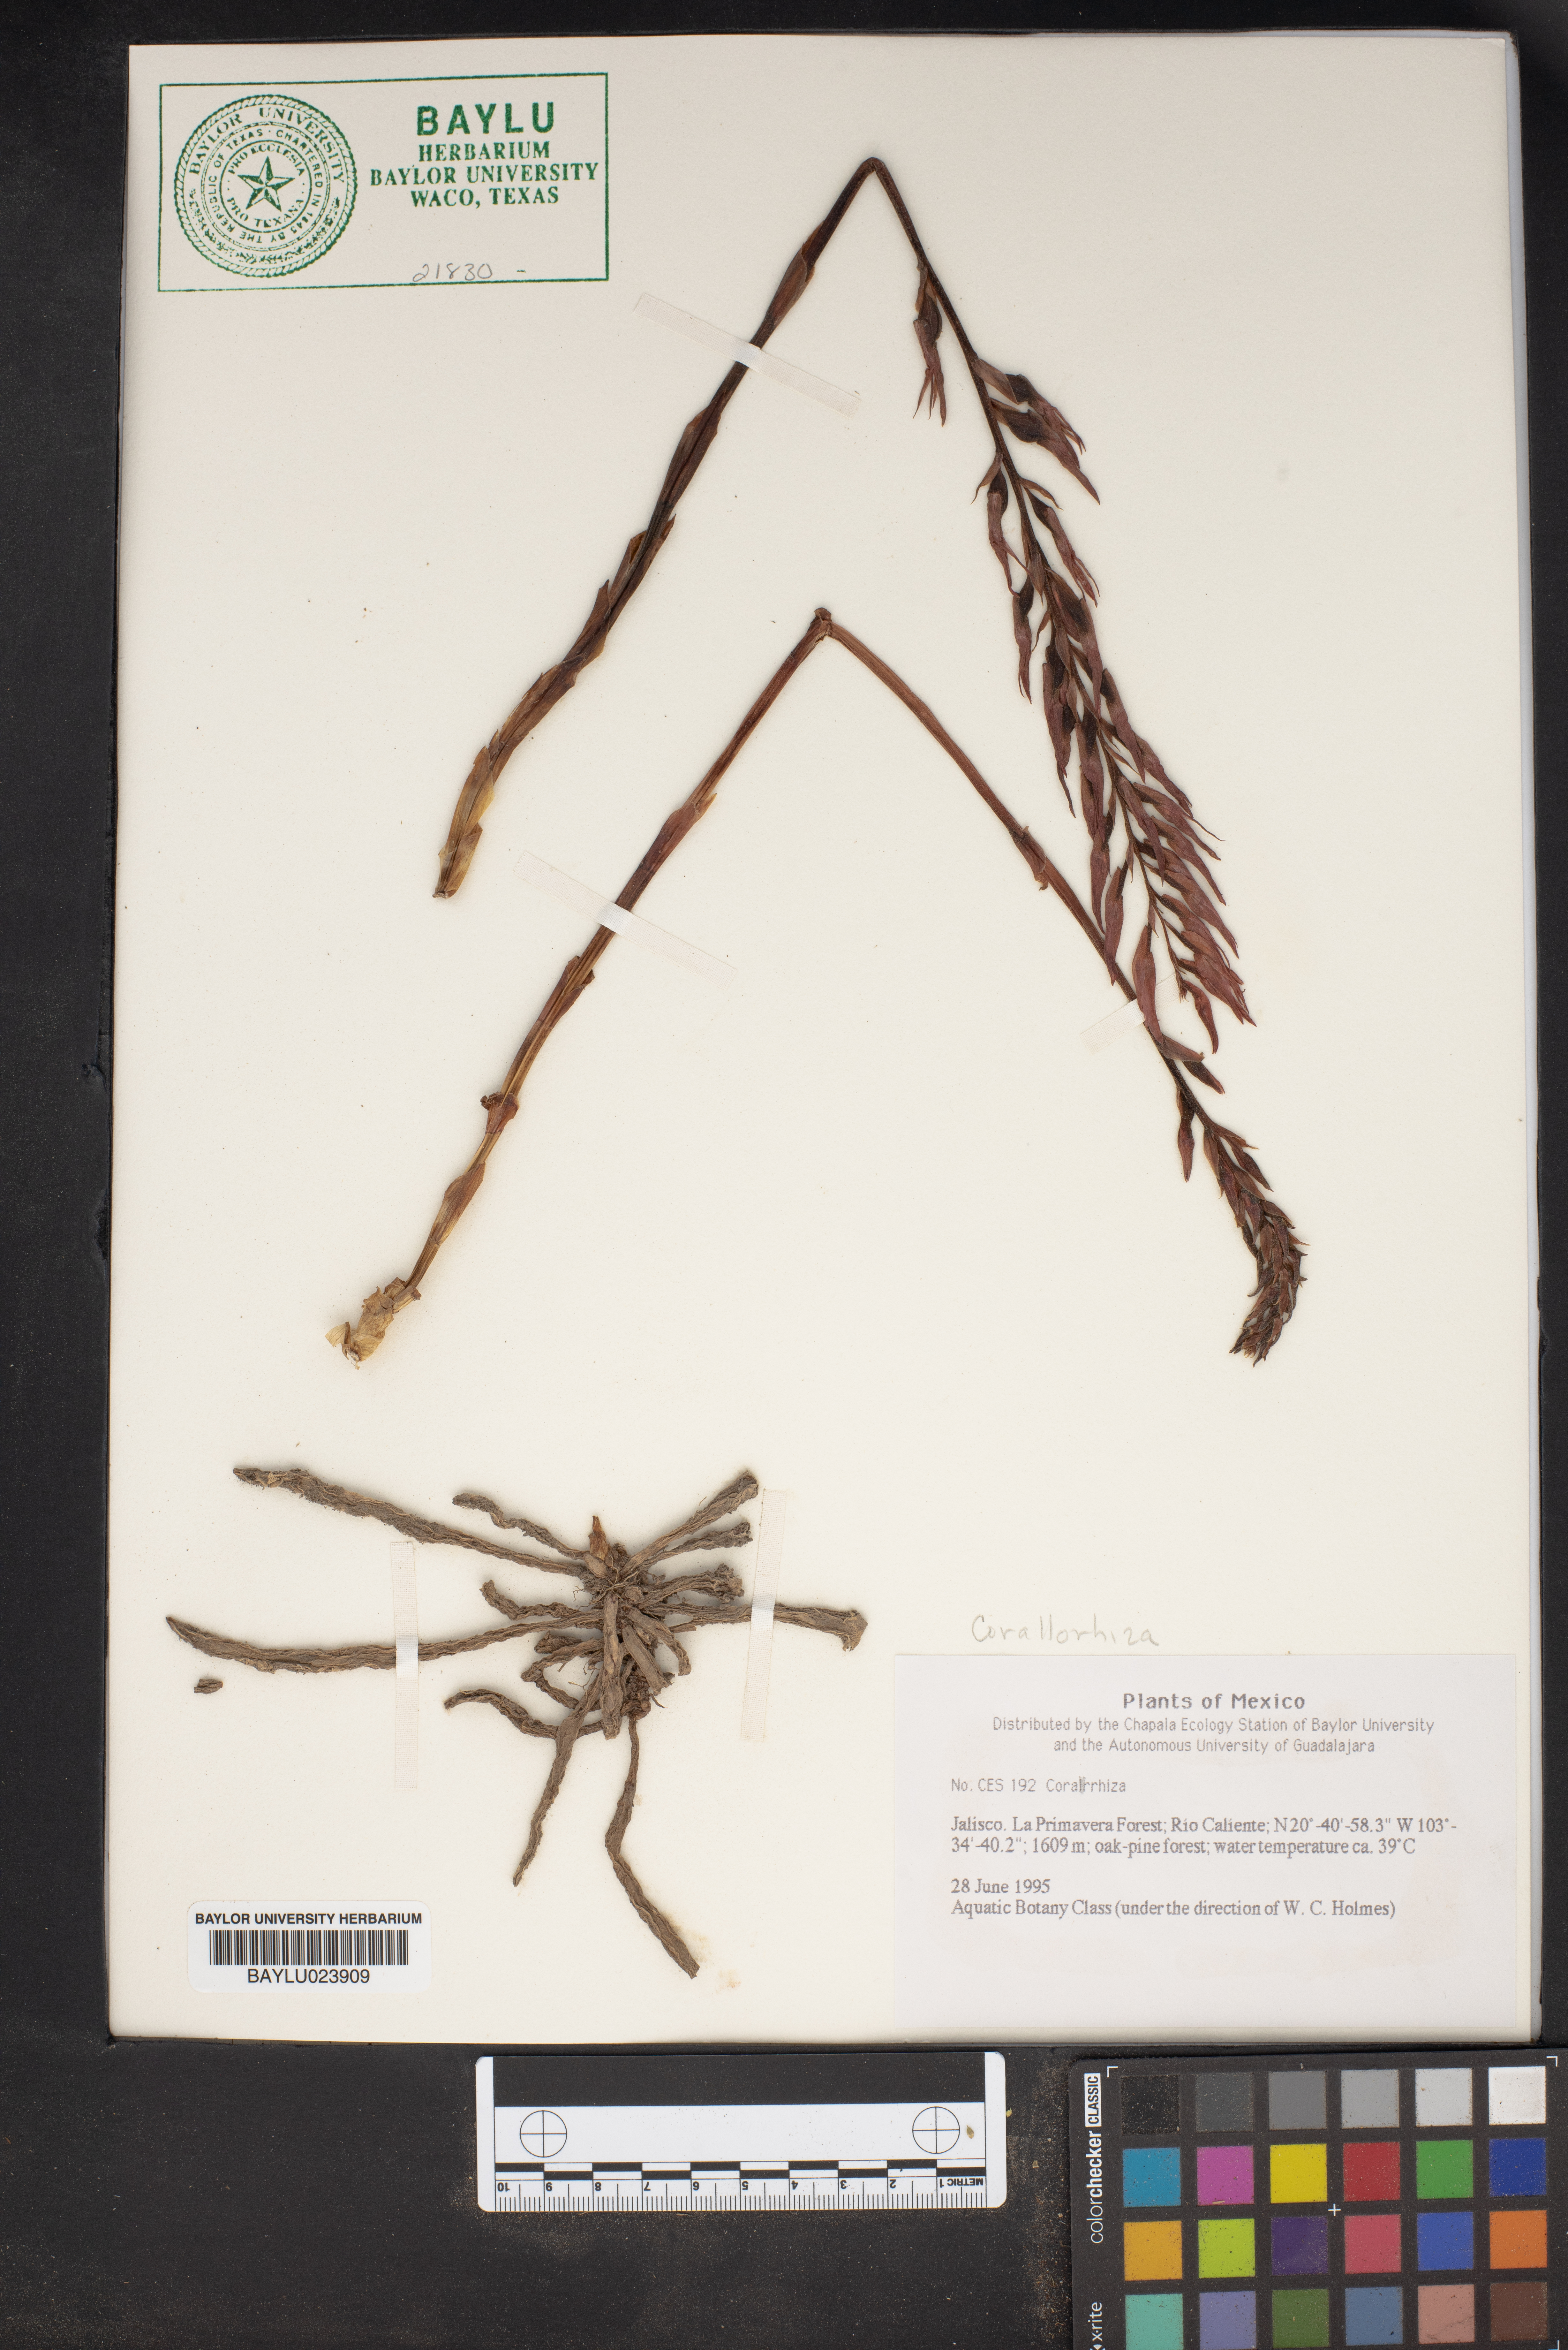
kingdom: Plantae
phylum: Tracheophyta
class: Liliopsida
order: Asparagales
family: Orchidaceae
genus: Corallorhiza
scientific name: Corallorhiza
